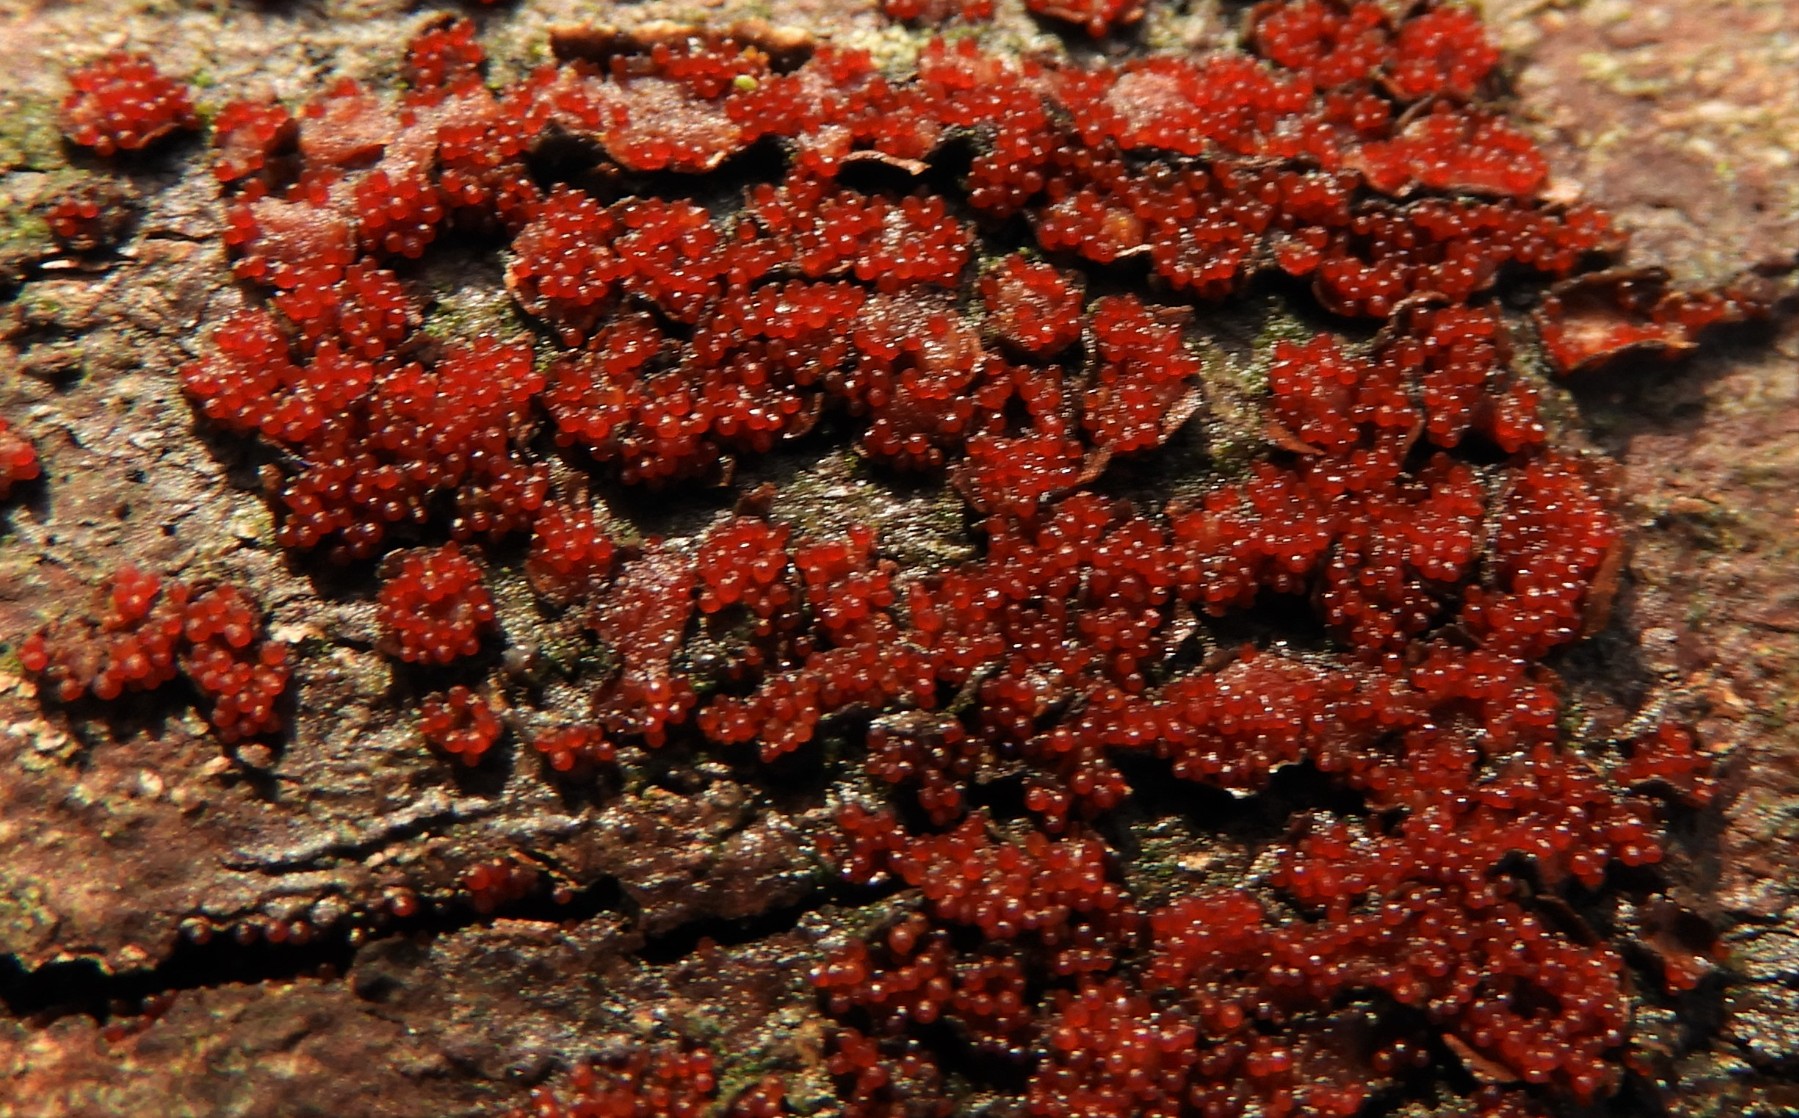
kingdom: Fungi
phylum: Ascomycota
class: Sordariomycetes
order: Hypocreales
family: Nectriaceae
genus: Nectria
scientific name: Nectria cinnabarina
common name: almindelig cinnobersvamp
